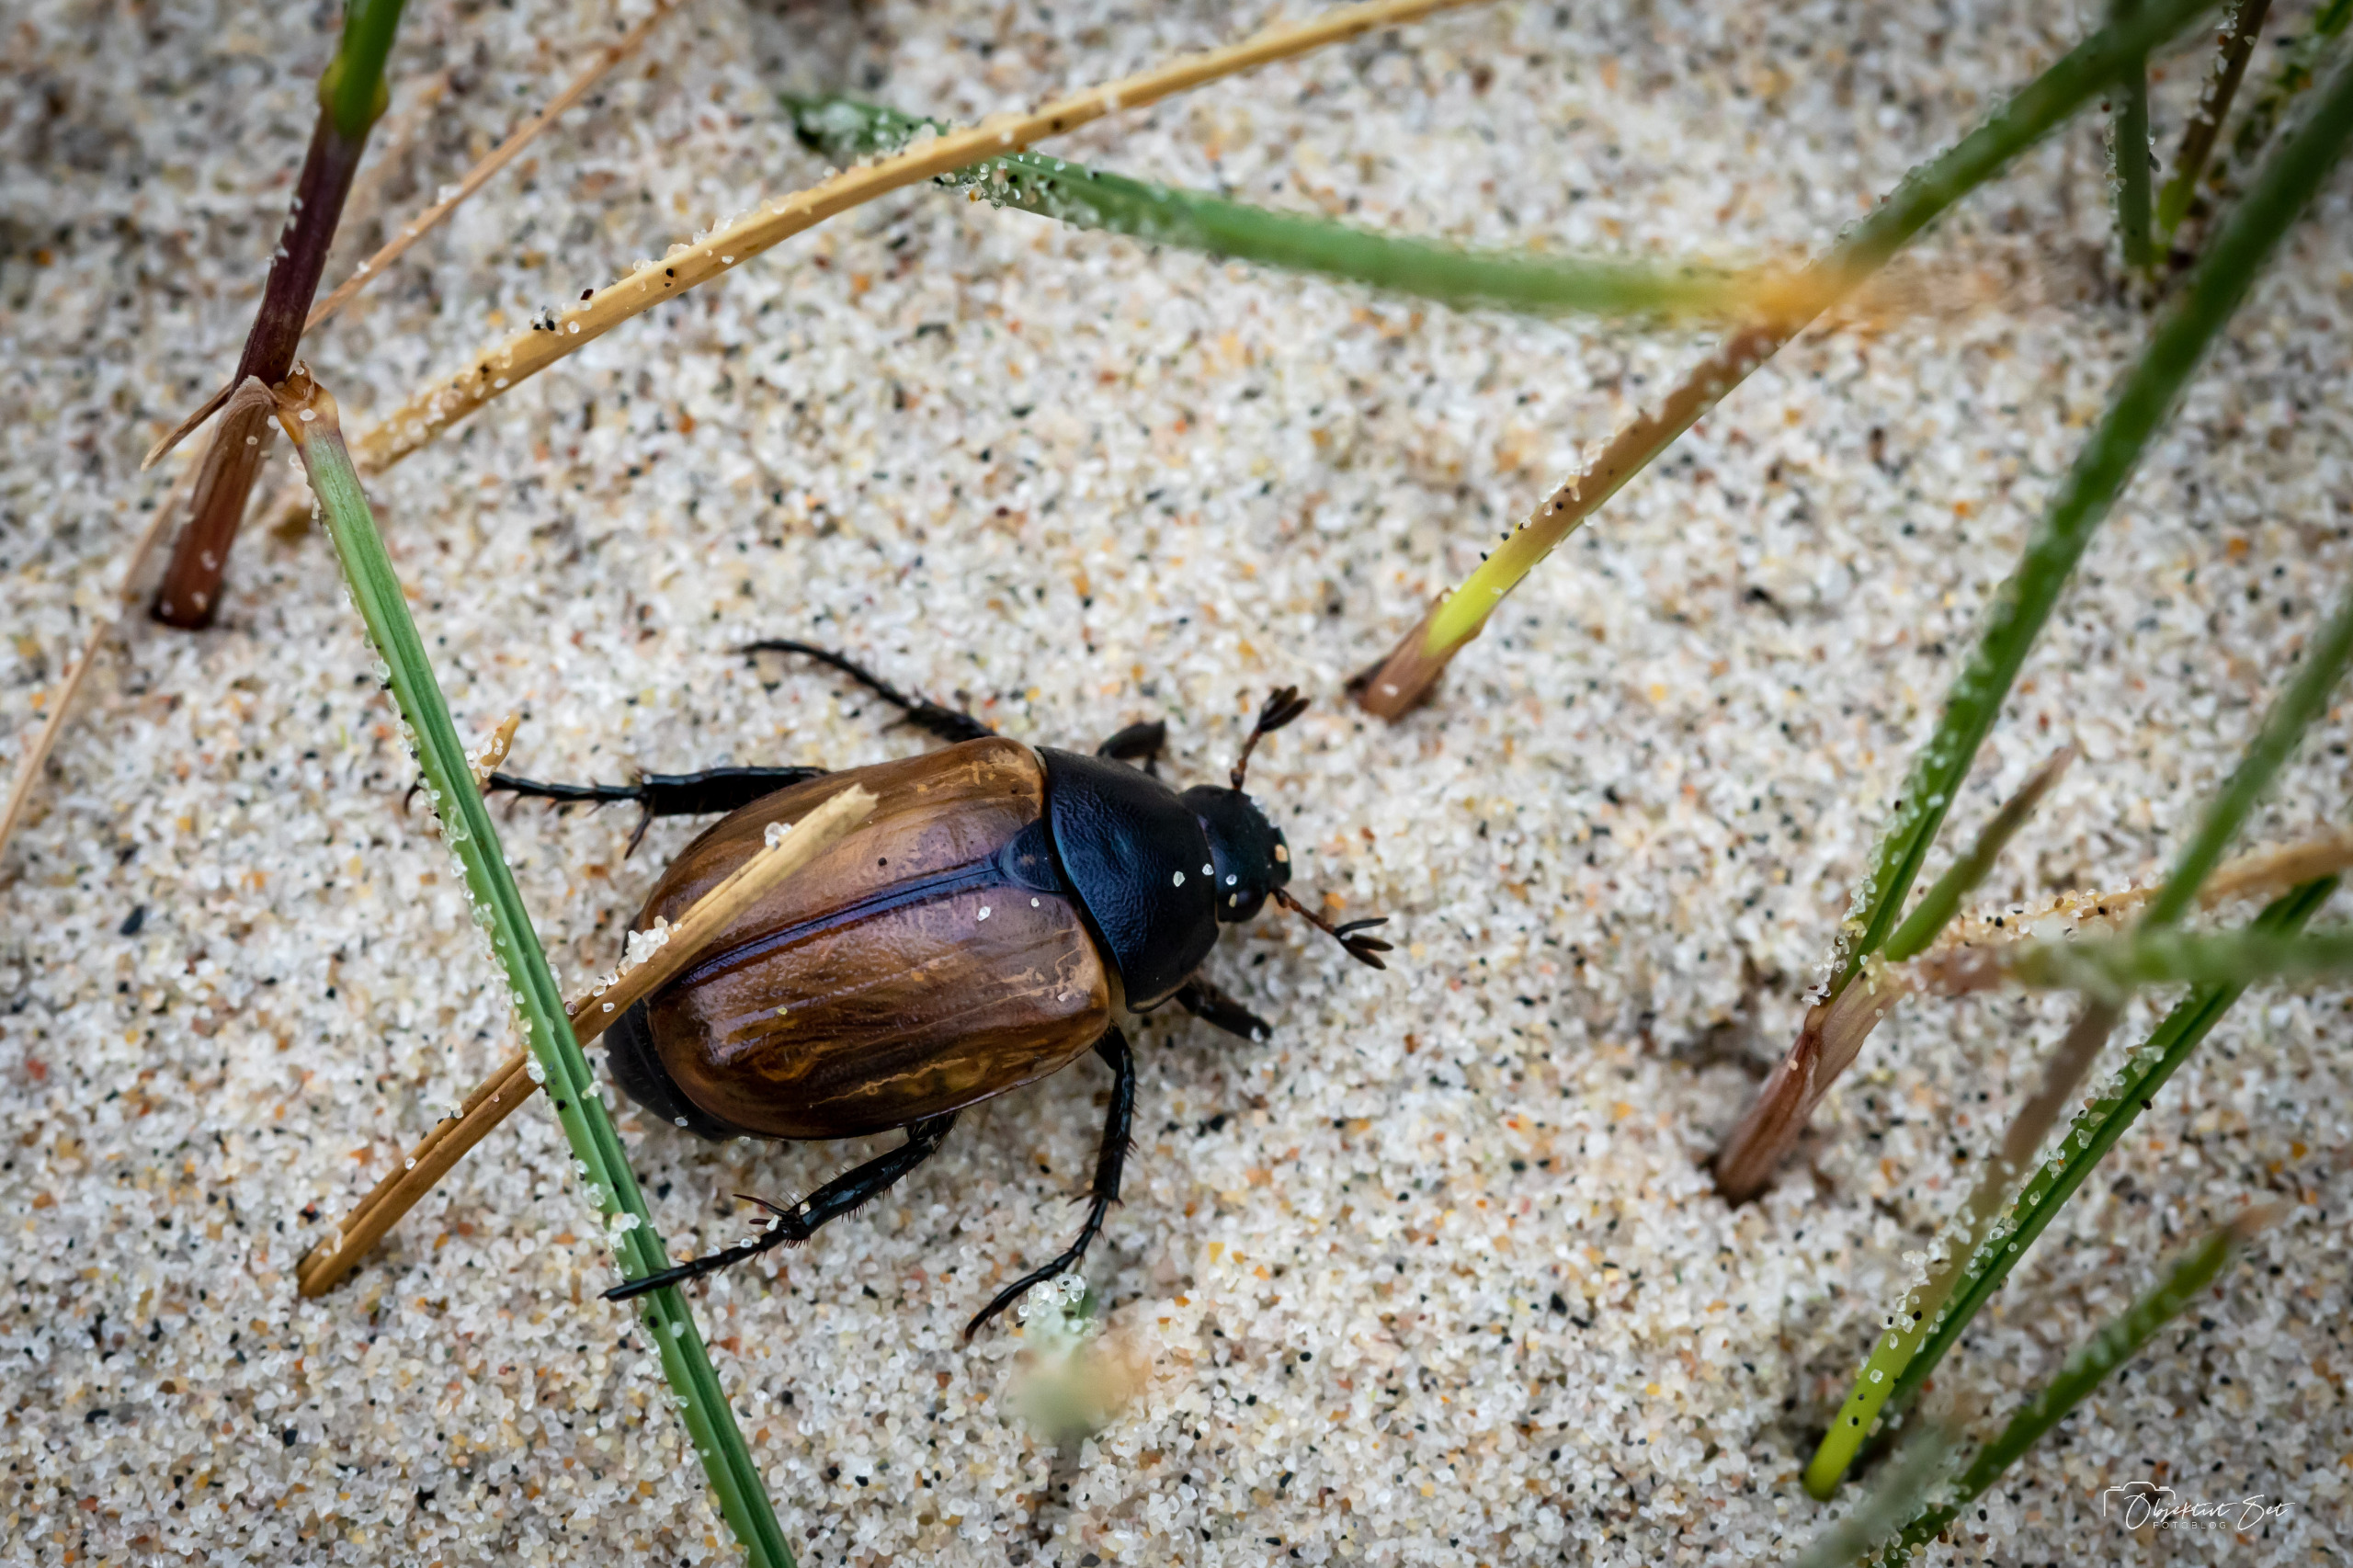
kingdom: Animalia
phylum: Arthropoda
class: Insecta
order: Coleoptera
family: Scarabaeidae
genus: Anomala
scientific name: Anomala dubia
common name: Klitoldenborre
